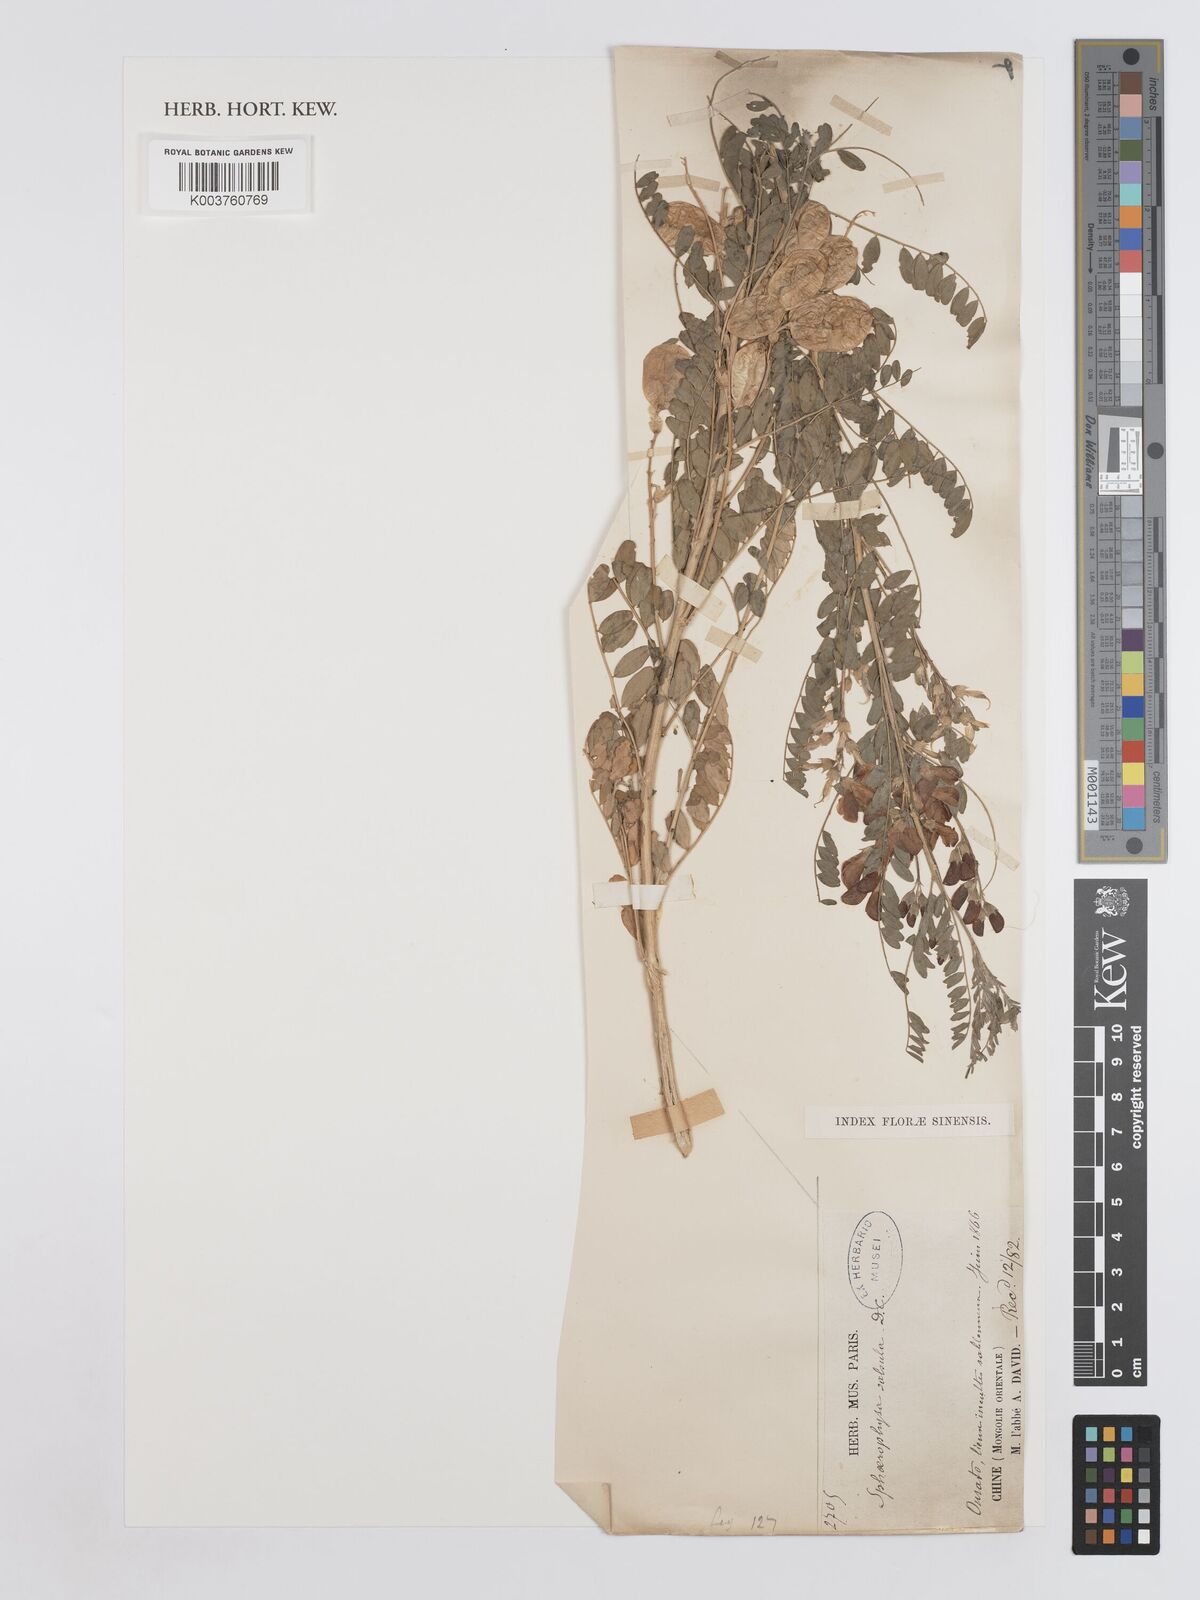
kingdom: Plantae
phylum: Tracheophyta
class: Magnoliopsida
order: Fabales
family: Fabaceae
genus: Sphaerophysa
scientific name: Sphaerophysa salsula
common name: Alkali swainsonpea
